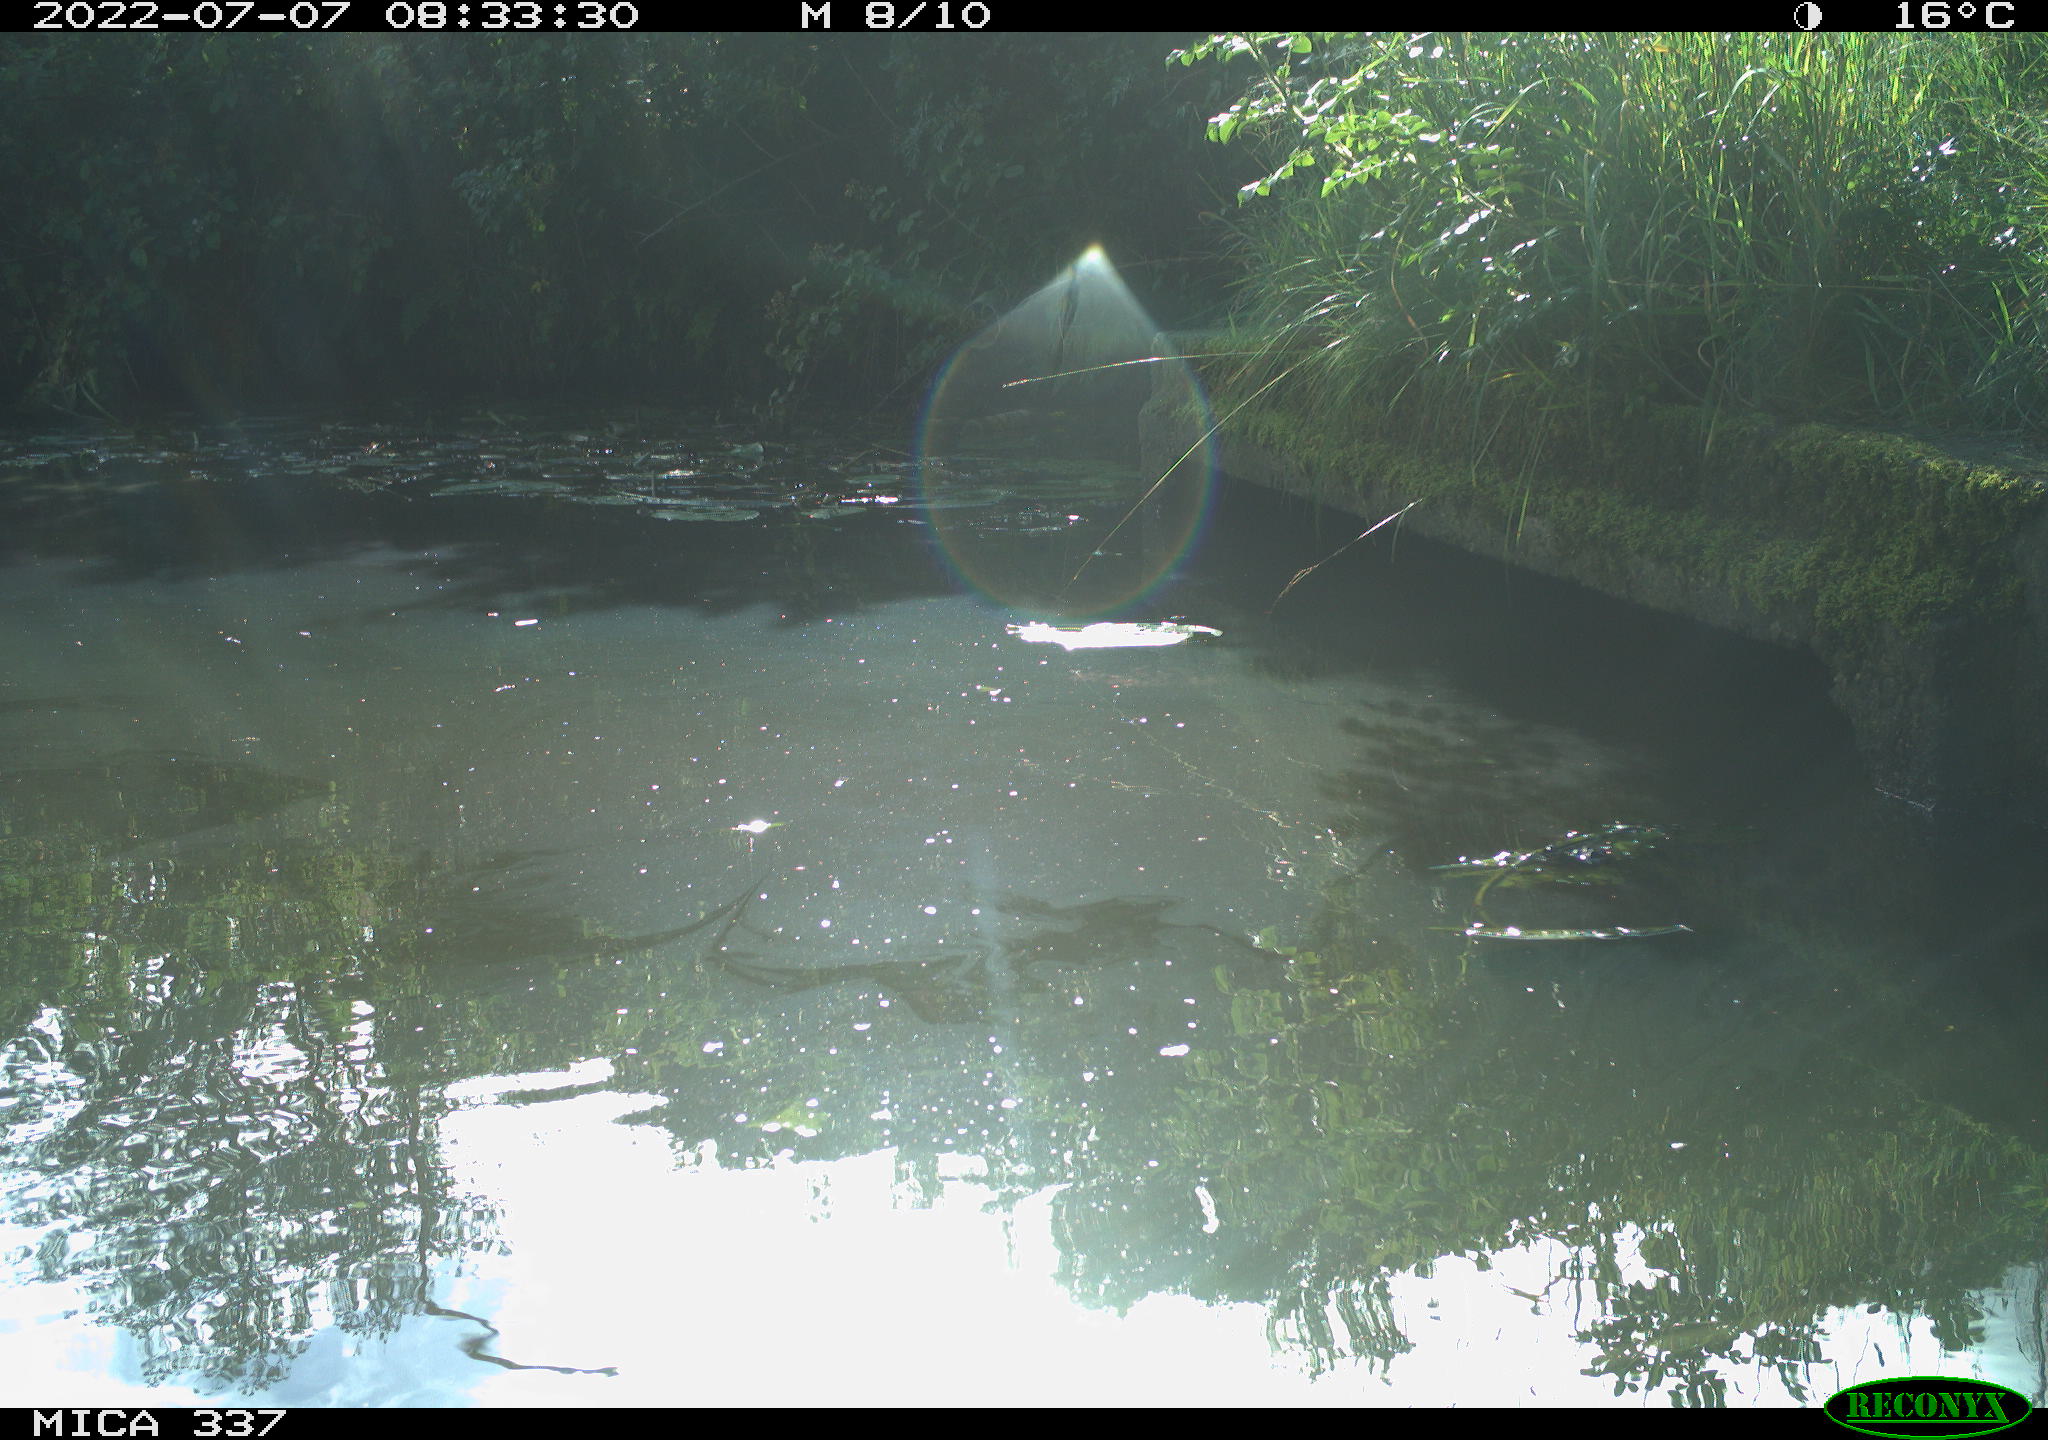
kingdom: Animalia
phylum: Chordata
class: Aves
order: Anseriformes
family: Anatidae
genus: Anas
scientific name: Anas platyrhynchos
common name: Mallard
